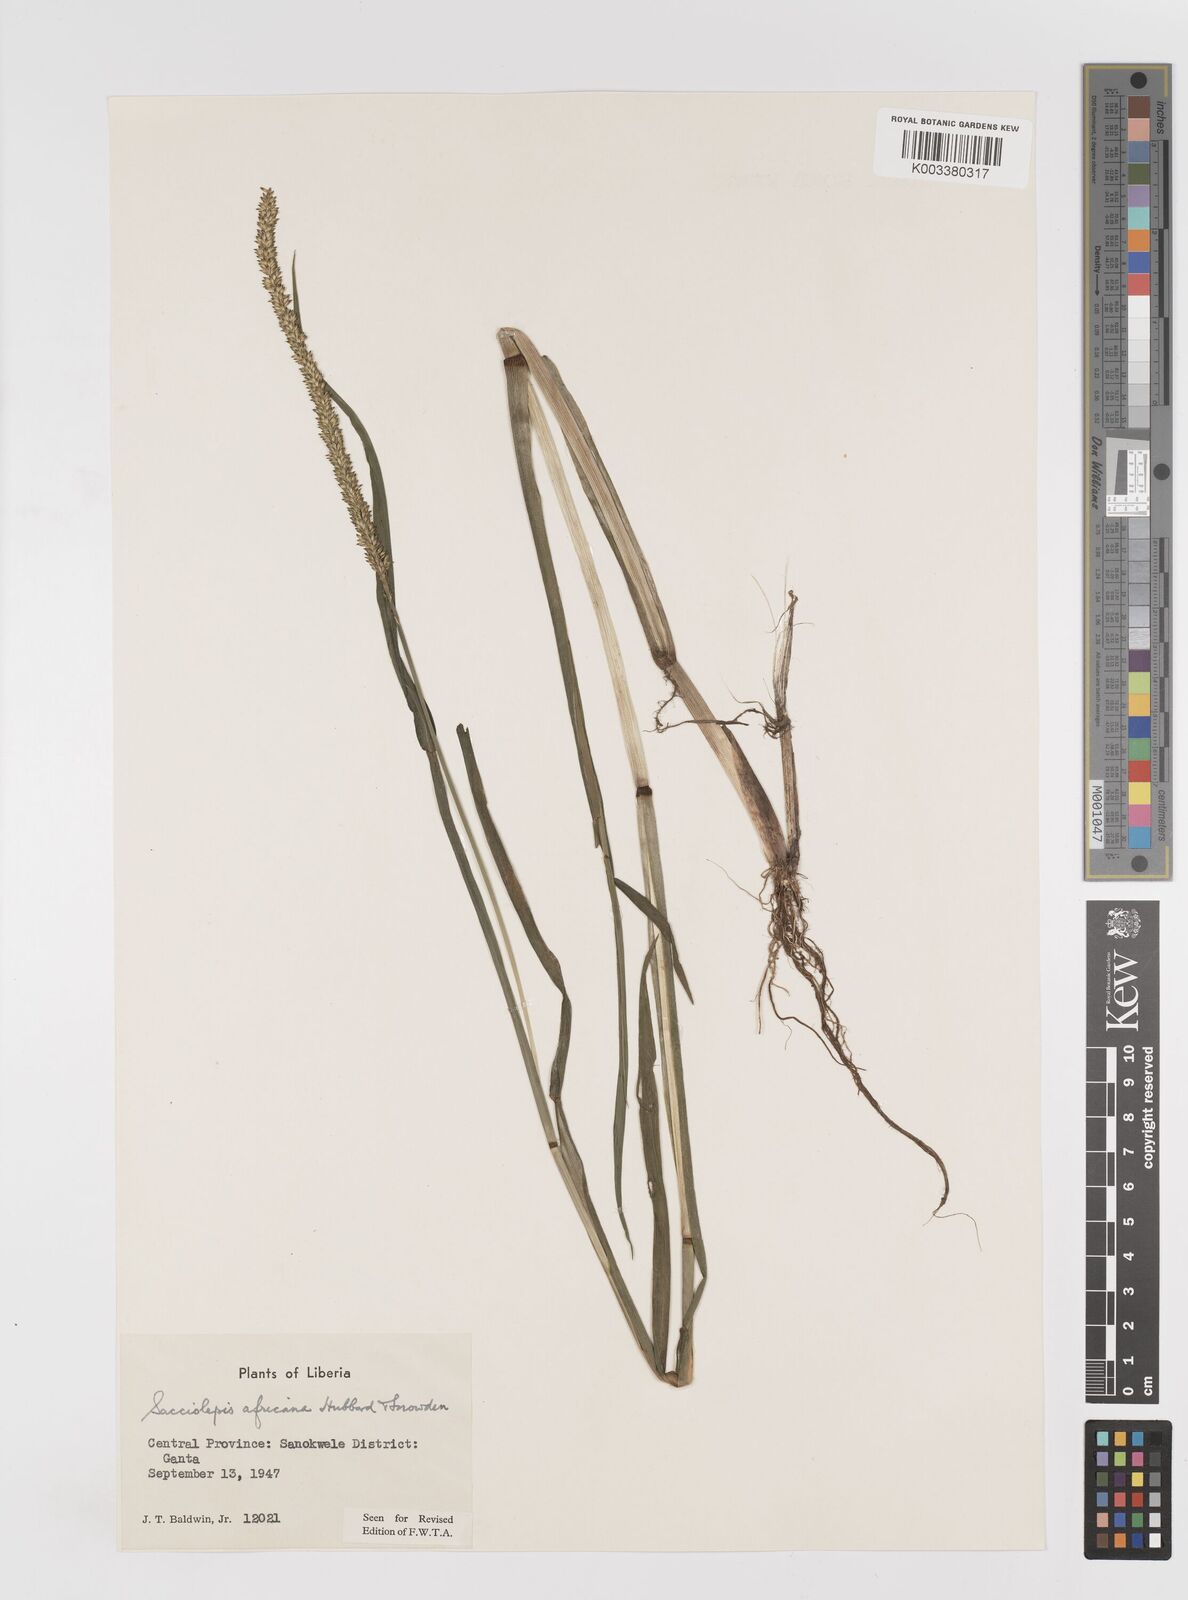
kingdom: Plantae
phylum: Tracheophyta
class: Liliopsida
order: Poales
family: Poaceae
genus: Sacciolepis
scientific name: Sacciolepis africana
